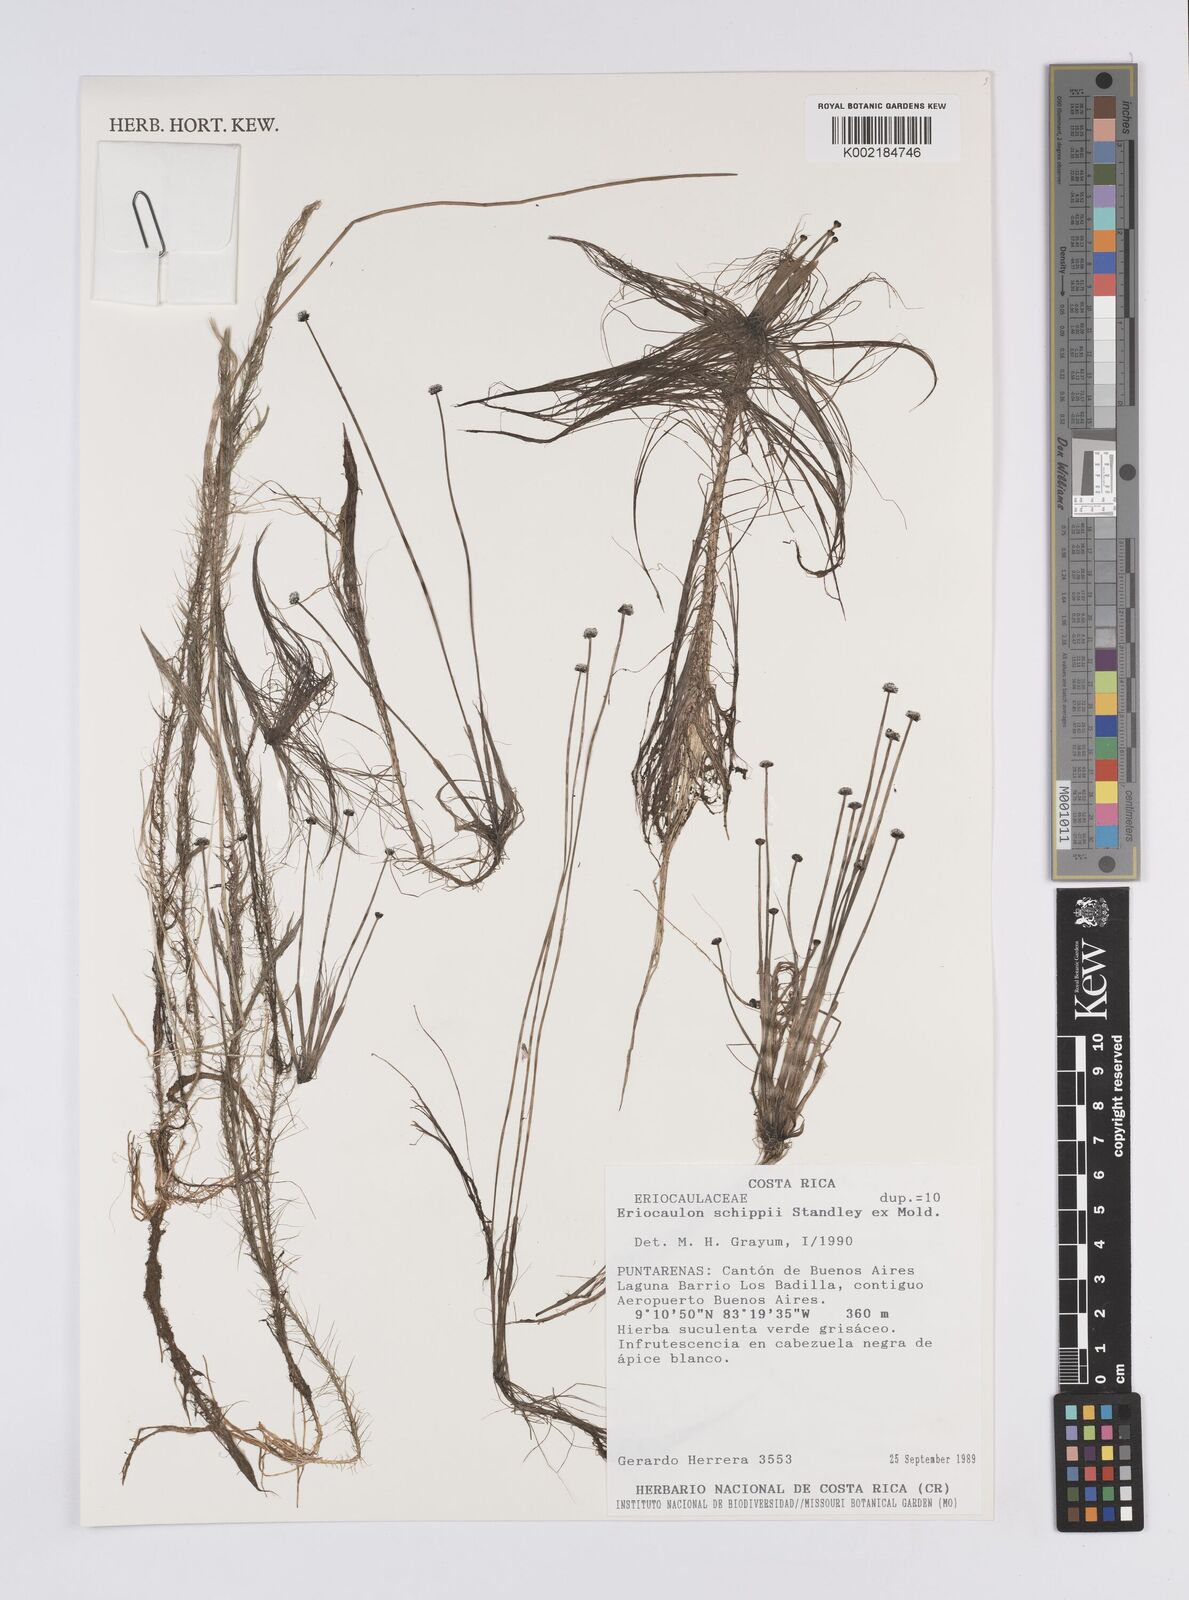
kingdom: Plantae
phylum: Tracheophyta
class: Liliopsida
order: Poales
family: Eriocaulaceae
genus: Eriocaulon
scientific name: Eriocaulon schippii
